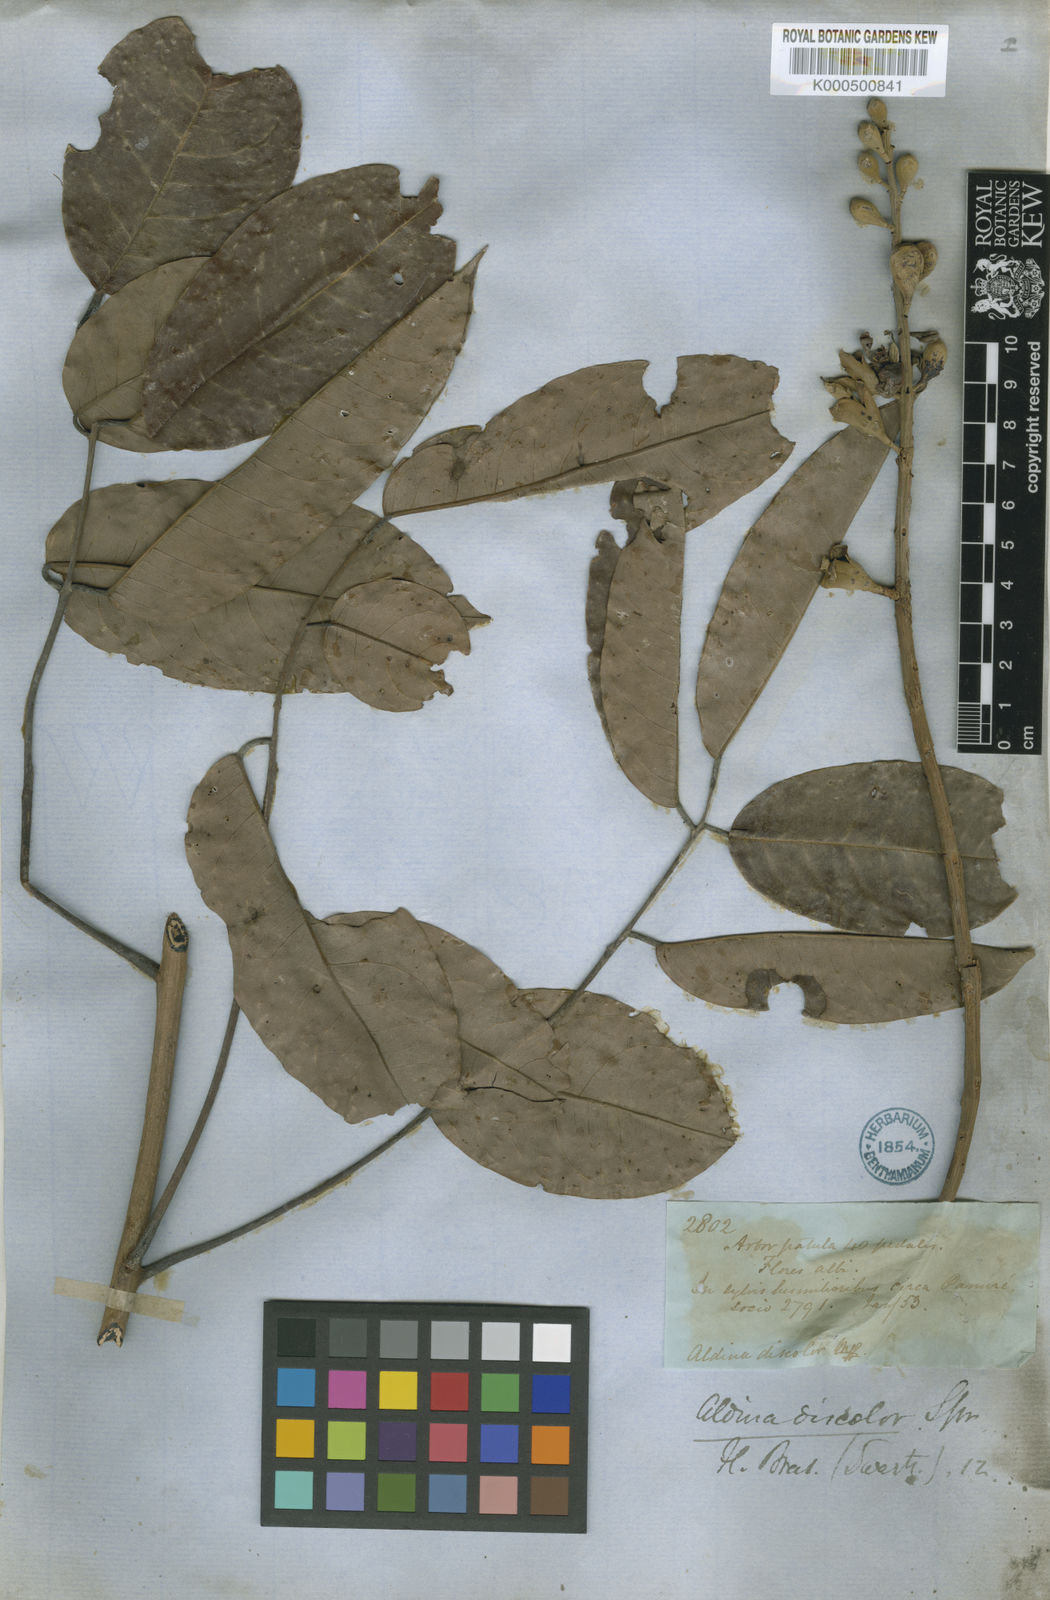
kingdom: Plantae
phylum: Tracheophyta
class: Magnoliopsida
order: Fabales
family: Fabaceae
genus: Aldina
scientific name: Aldina latifolia
